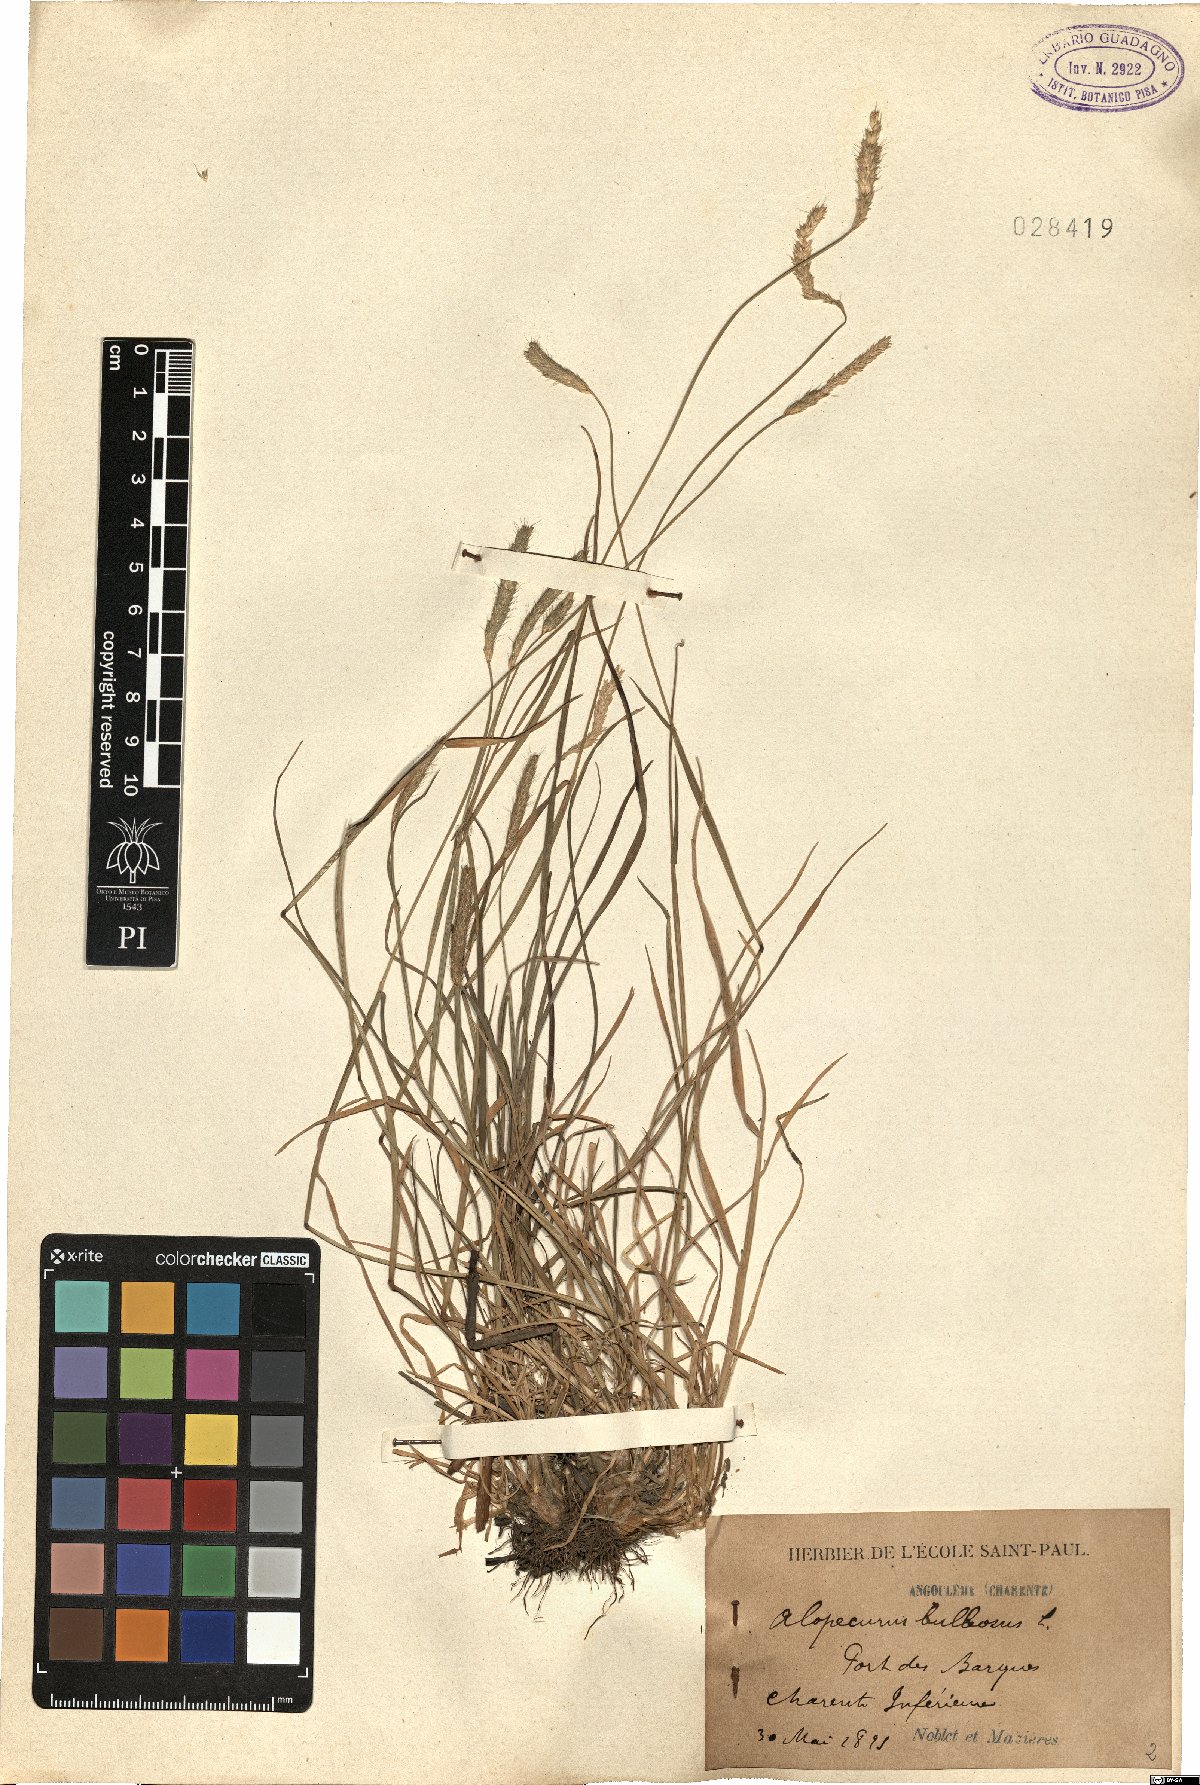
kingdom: Plantae
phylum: Tracheophyta
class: Liliopsida
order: Poales
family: Poaceae
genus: Alopecurus
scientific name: Alopecurus bulbosus
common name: Bulbous foxtail
